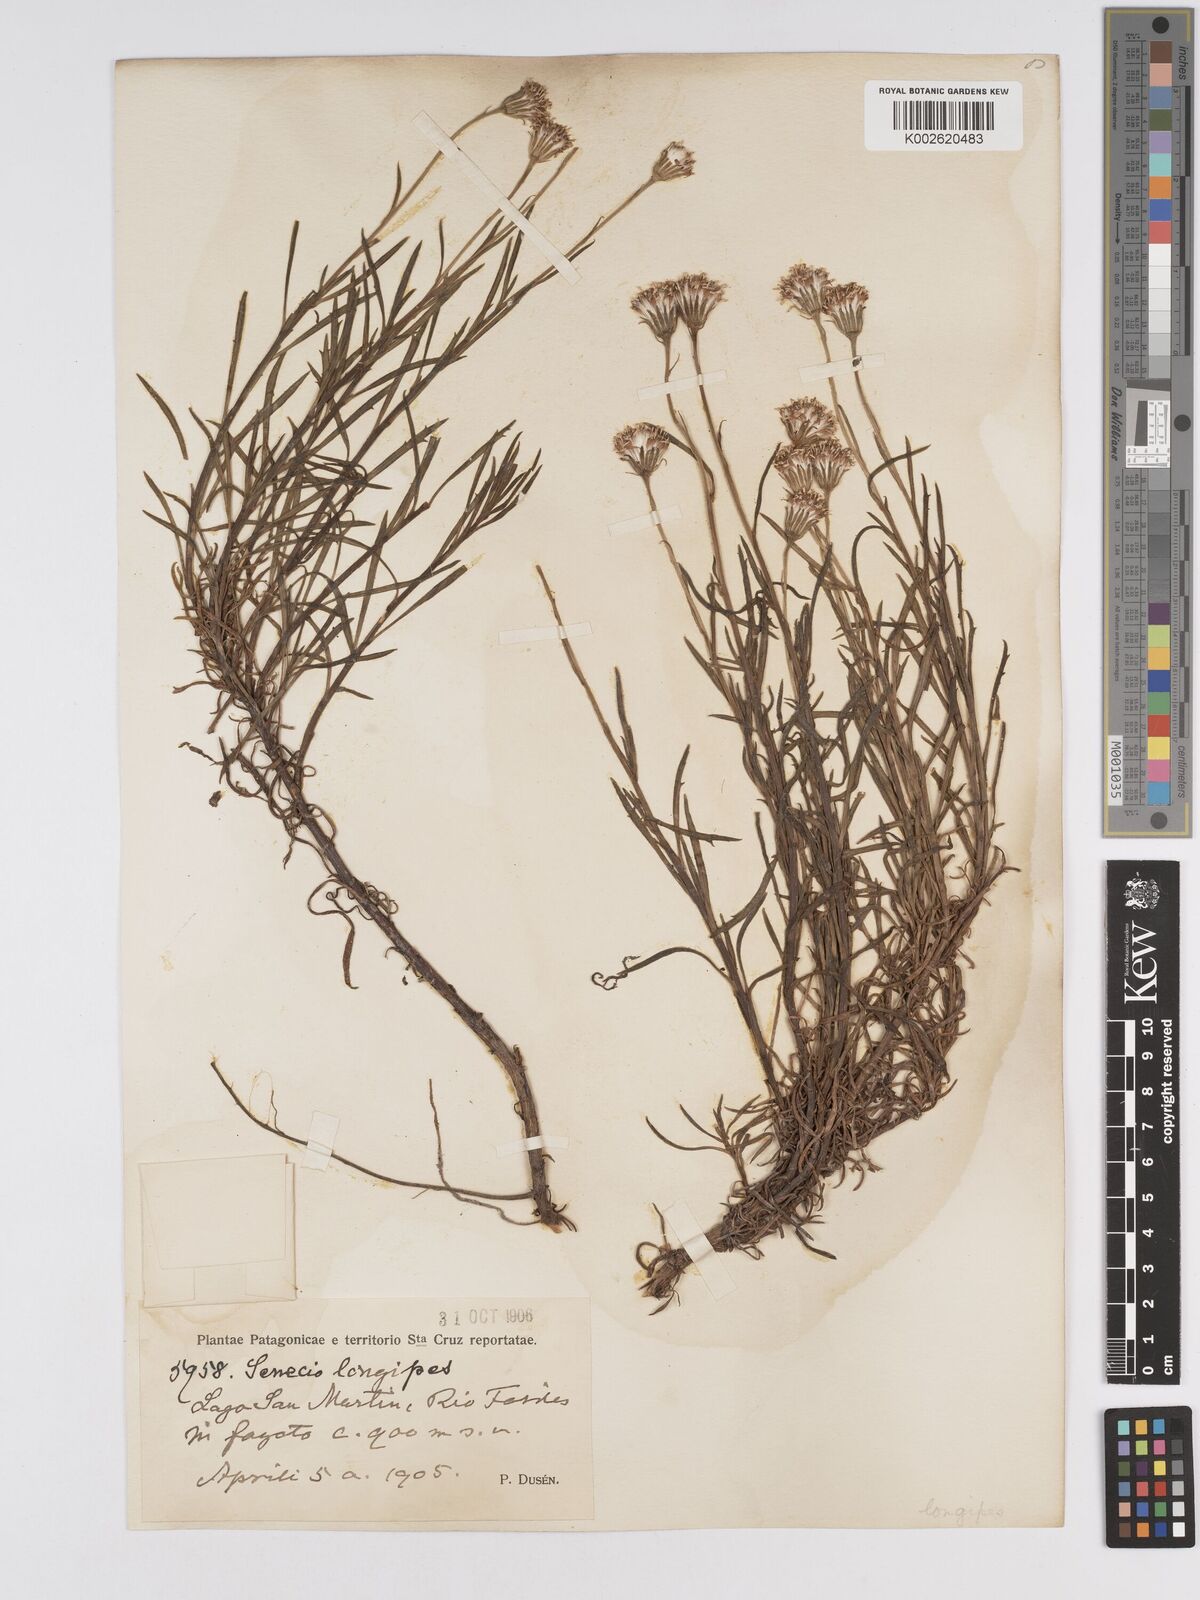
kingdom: Plantae
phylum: Tracheophyta
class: Magnoliopsida
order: Asterales
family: Asteraceae
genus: Senecio
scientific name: Senecio tricuspidatus
